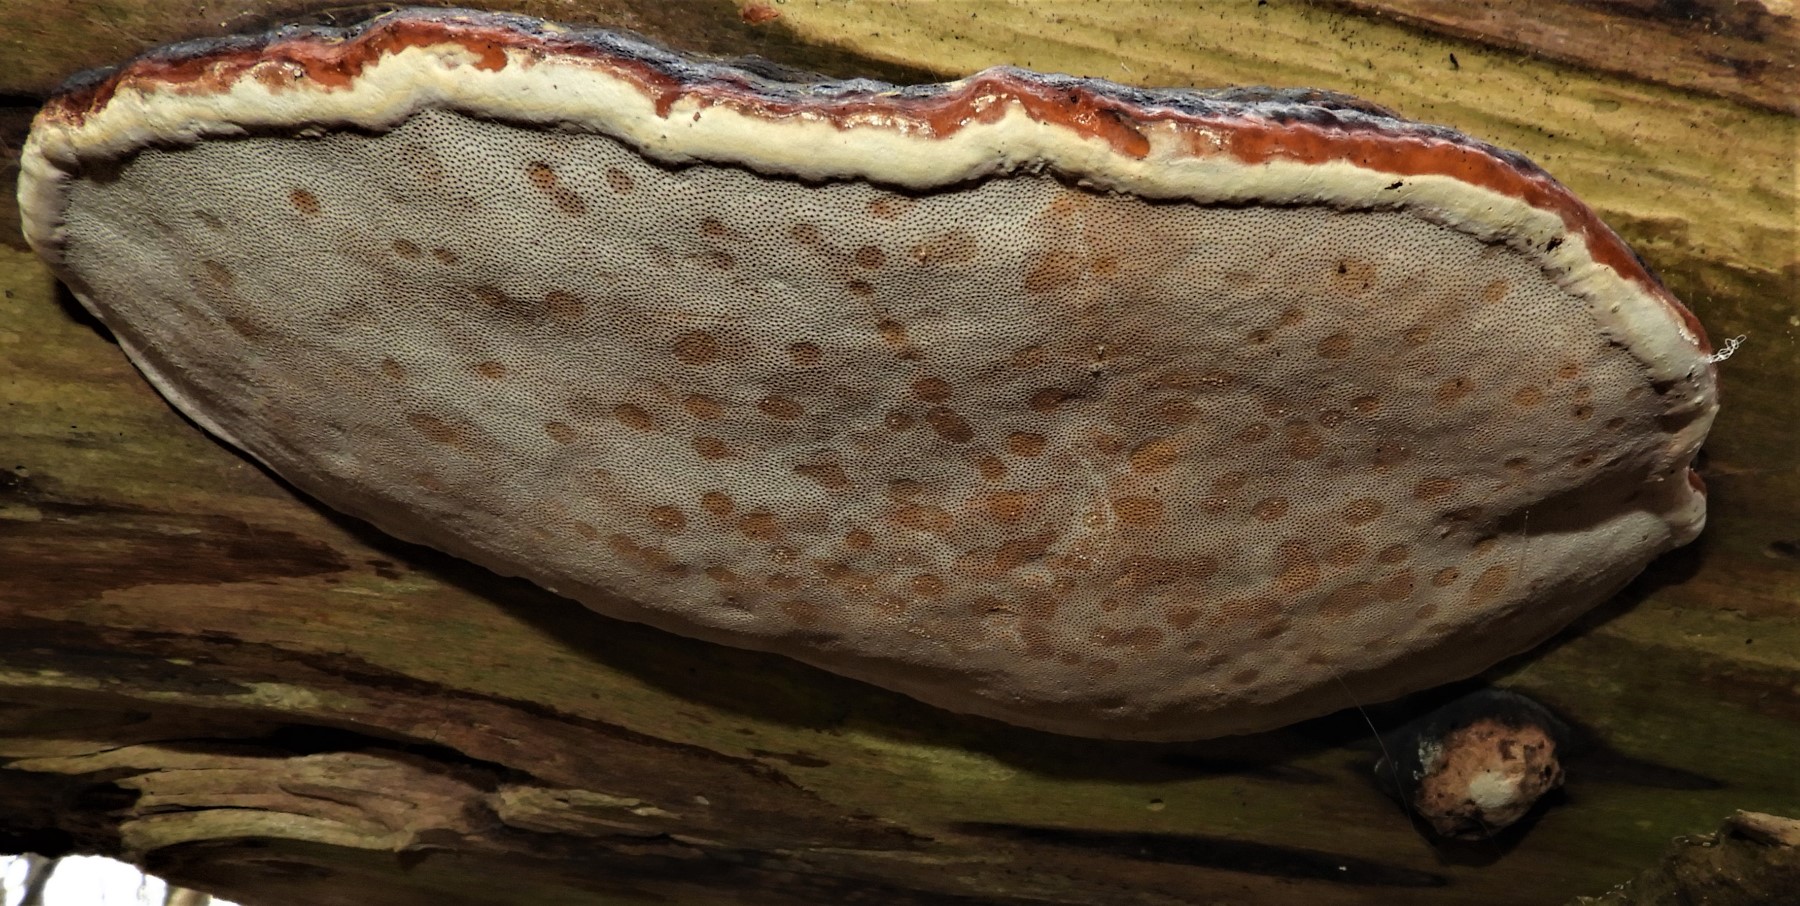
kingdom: Fungi
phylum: Basidiomycota
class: Agaricomycetes
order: Polyporales
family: Fomitopsidaceae
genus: Fomitopsis
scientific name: Fomitopsis pinicola
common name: randbæltet hovporesvamp
